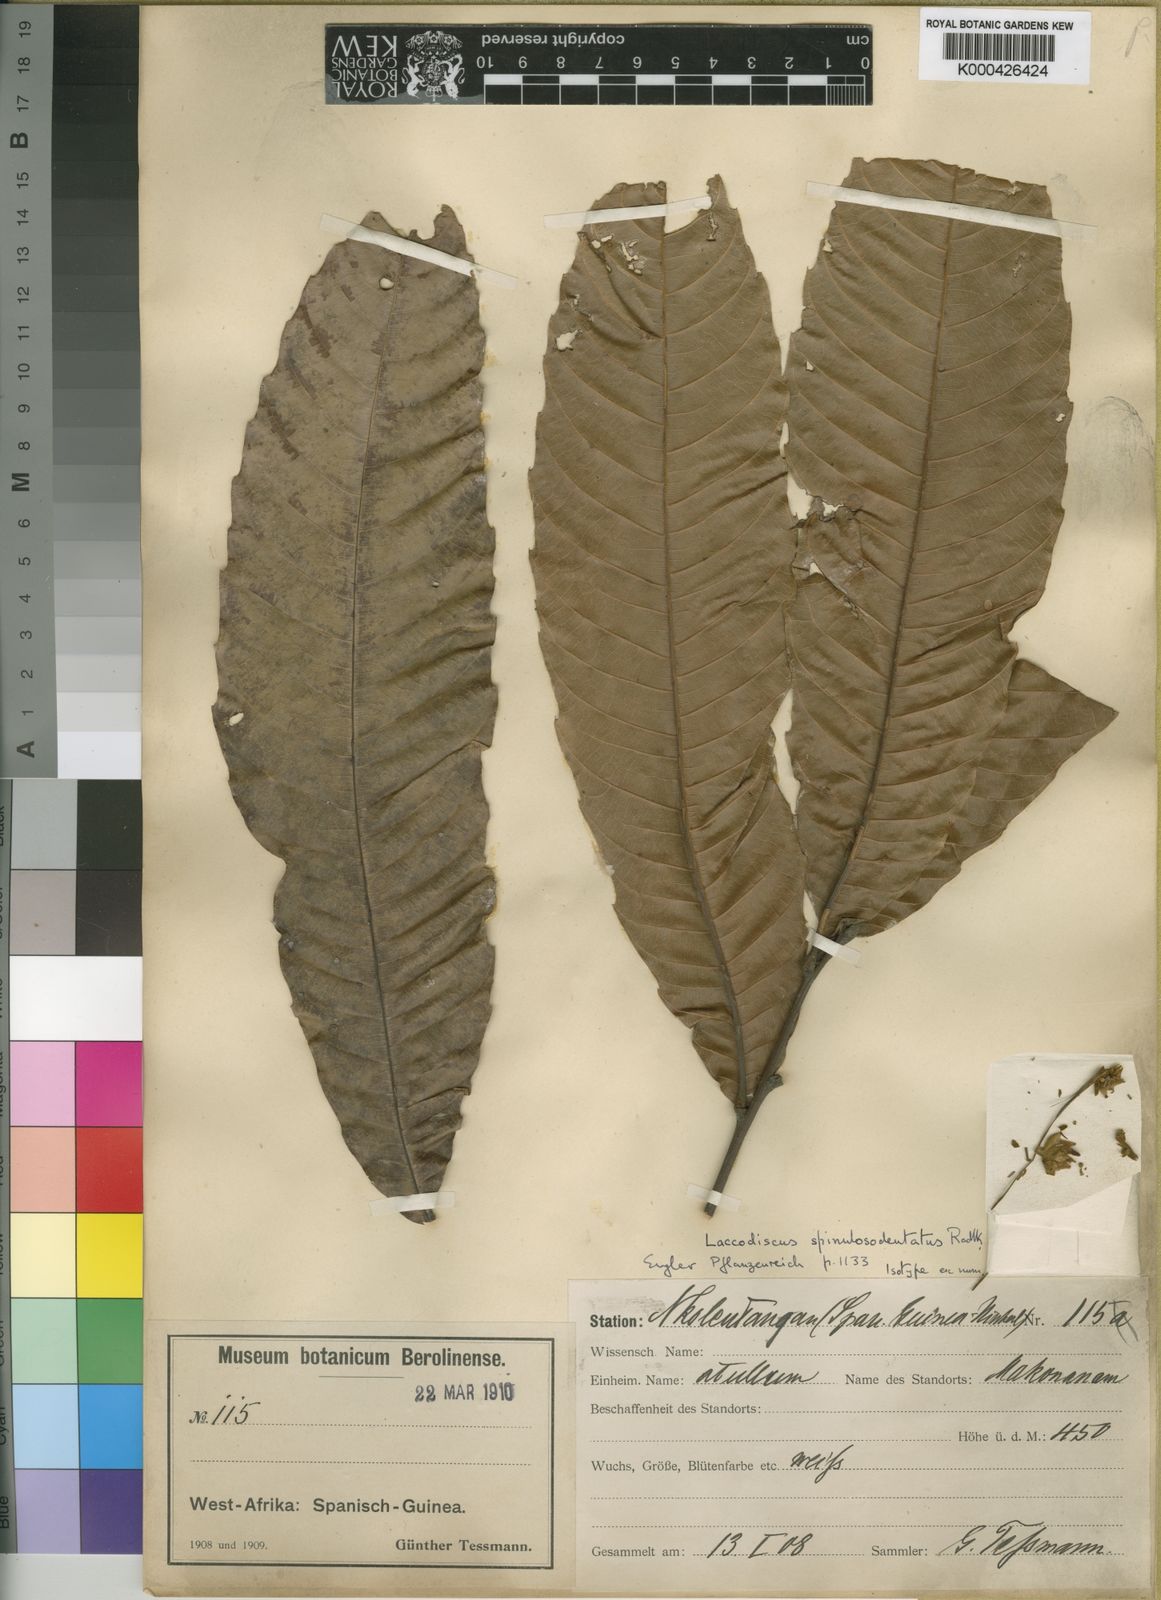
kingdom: Plantae
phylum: Tracheophyta
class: Magnoliopsida
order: Sapindales
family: Sapindaceae
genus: Laccodiscus
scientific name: Laccodiscus spinulosodentatus
